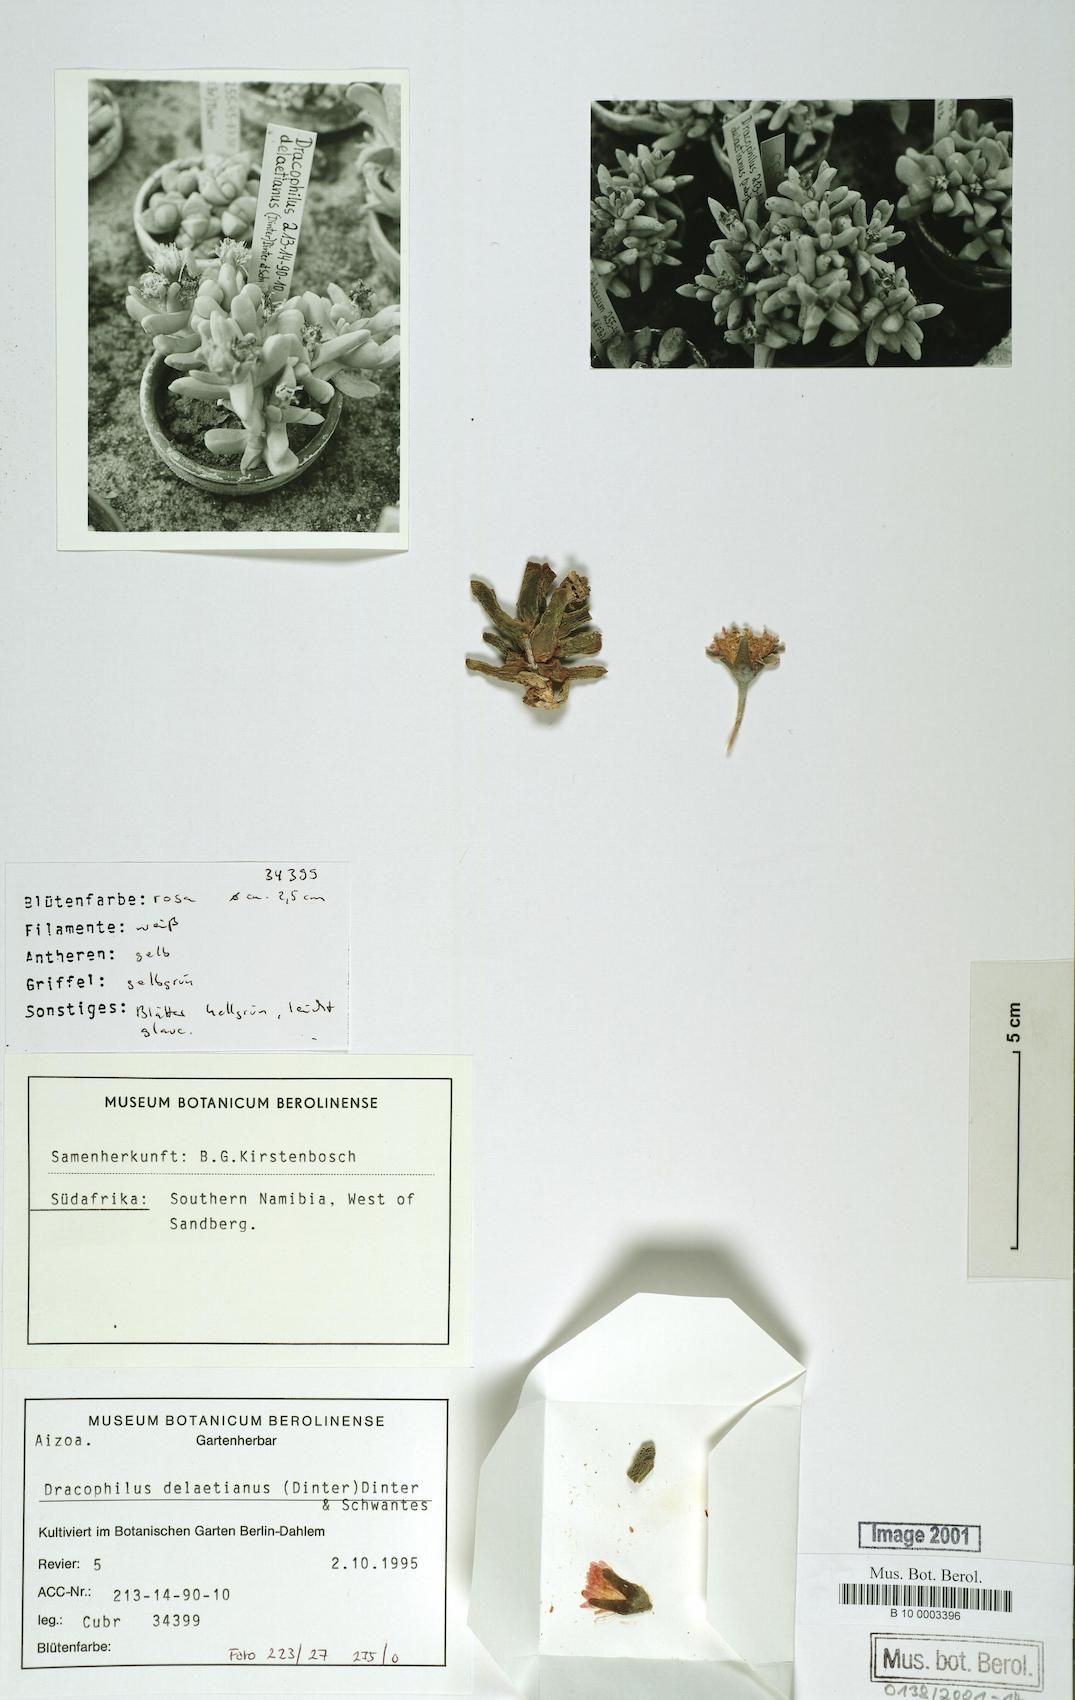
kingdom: Plantae
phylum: Tracheophyta
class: Magnoliopsida
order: Caryophyllales
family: Aizoaceae
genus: Dracophilus
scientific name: Dracophilus delaetianus
